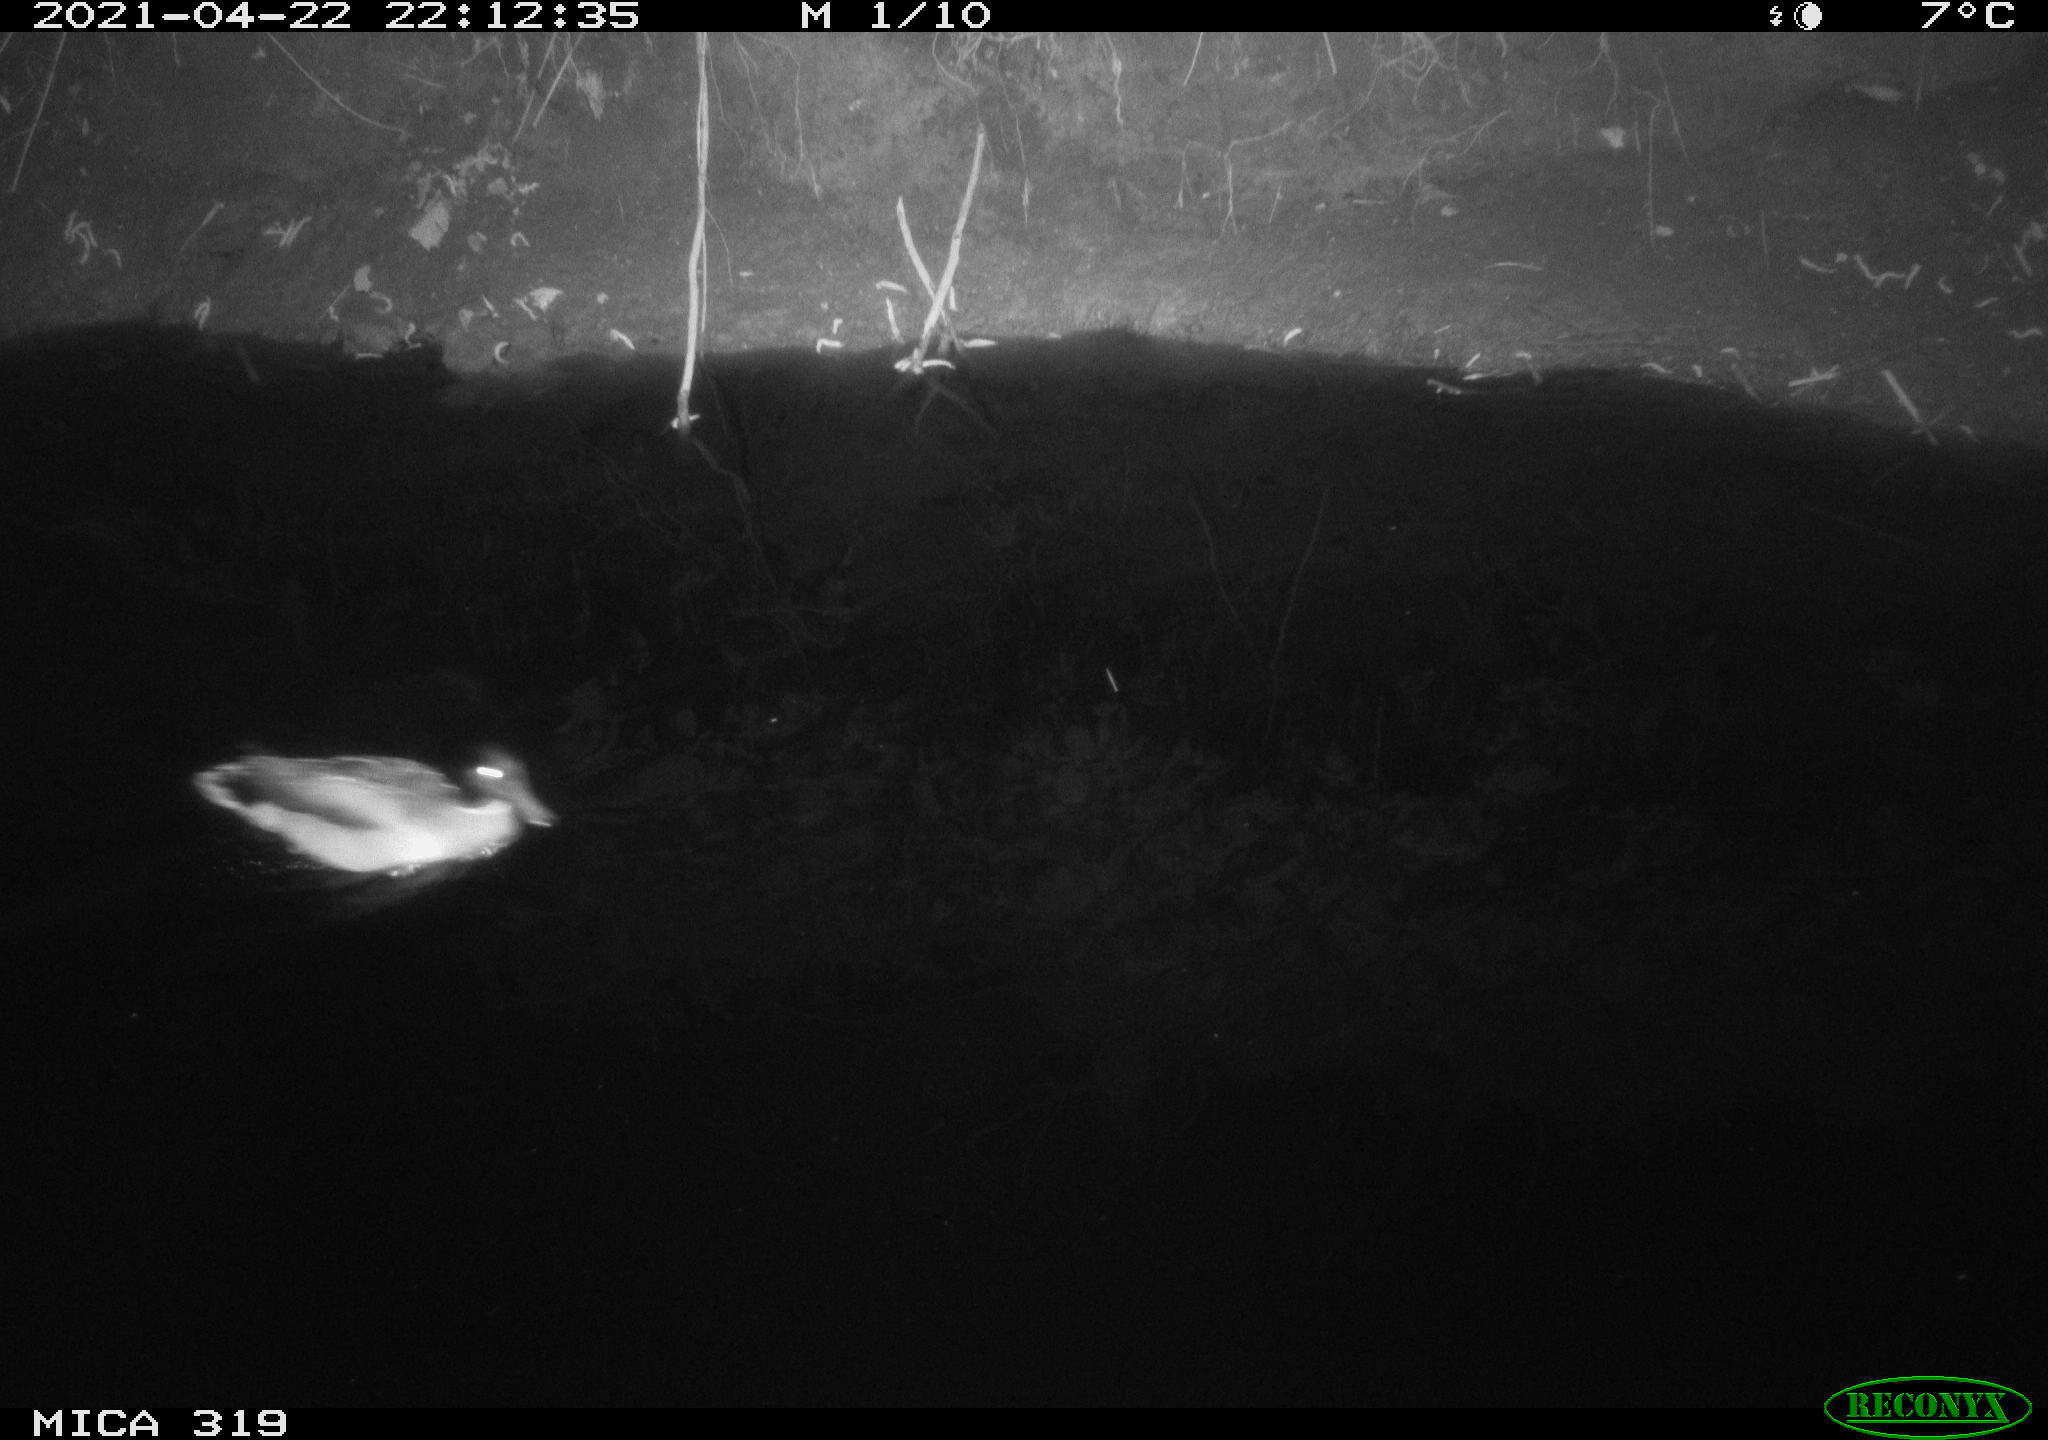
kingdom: Animalia
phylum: Chordata
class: Aves
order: Anseriformes
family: Anatidae
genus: Anas
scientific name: Anas platyrhynchos
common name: Mallard
